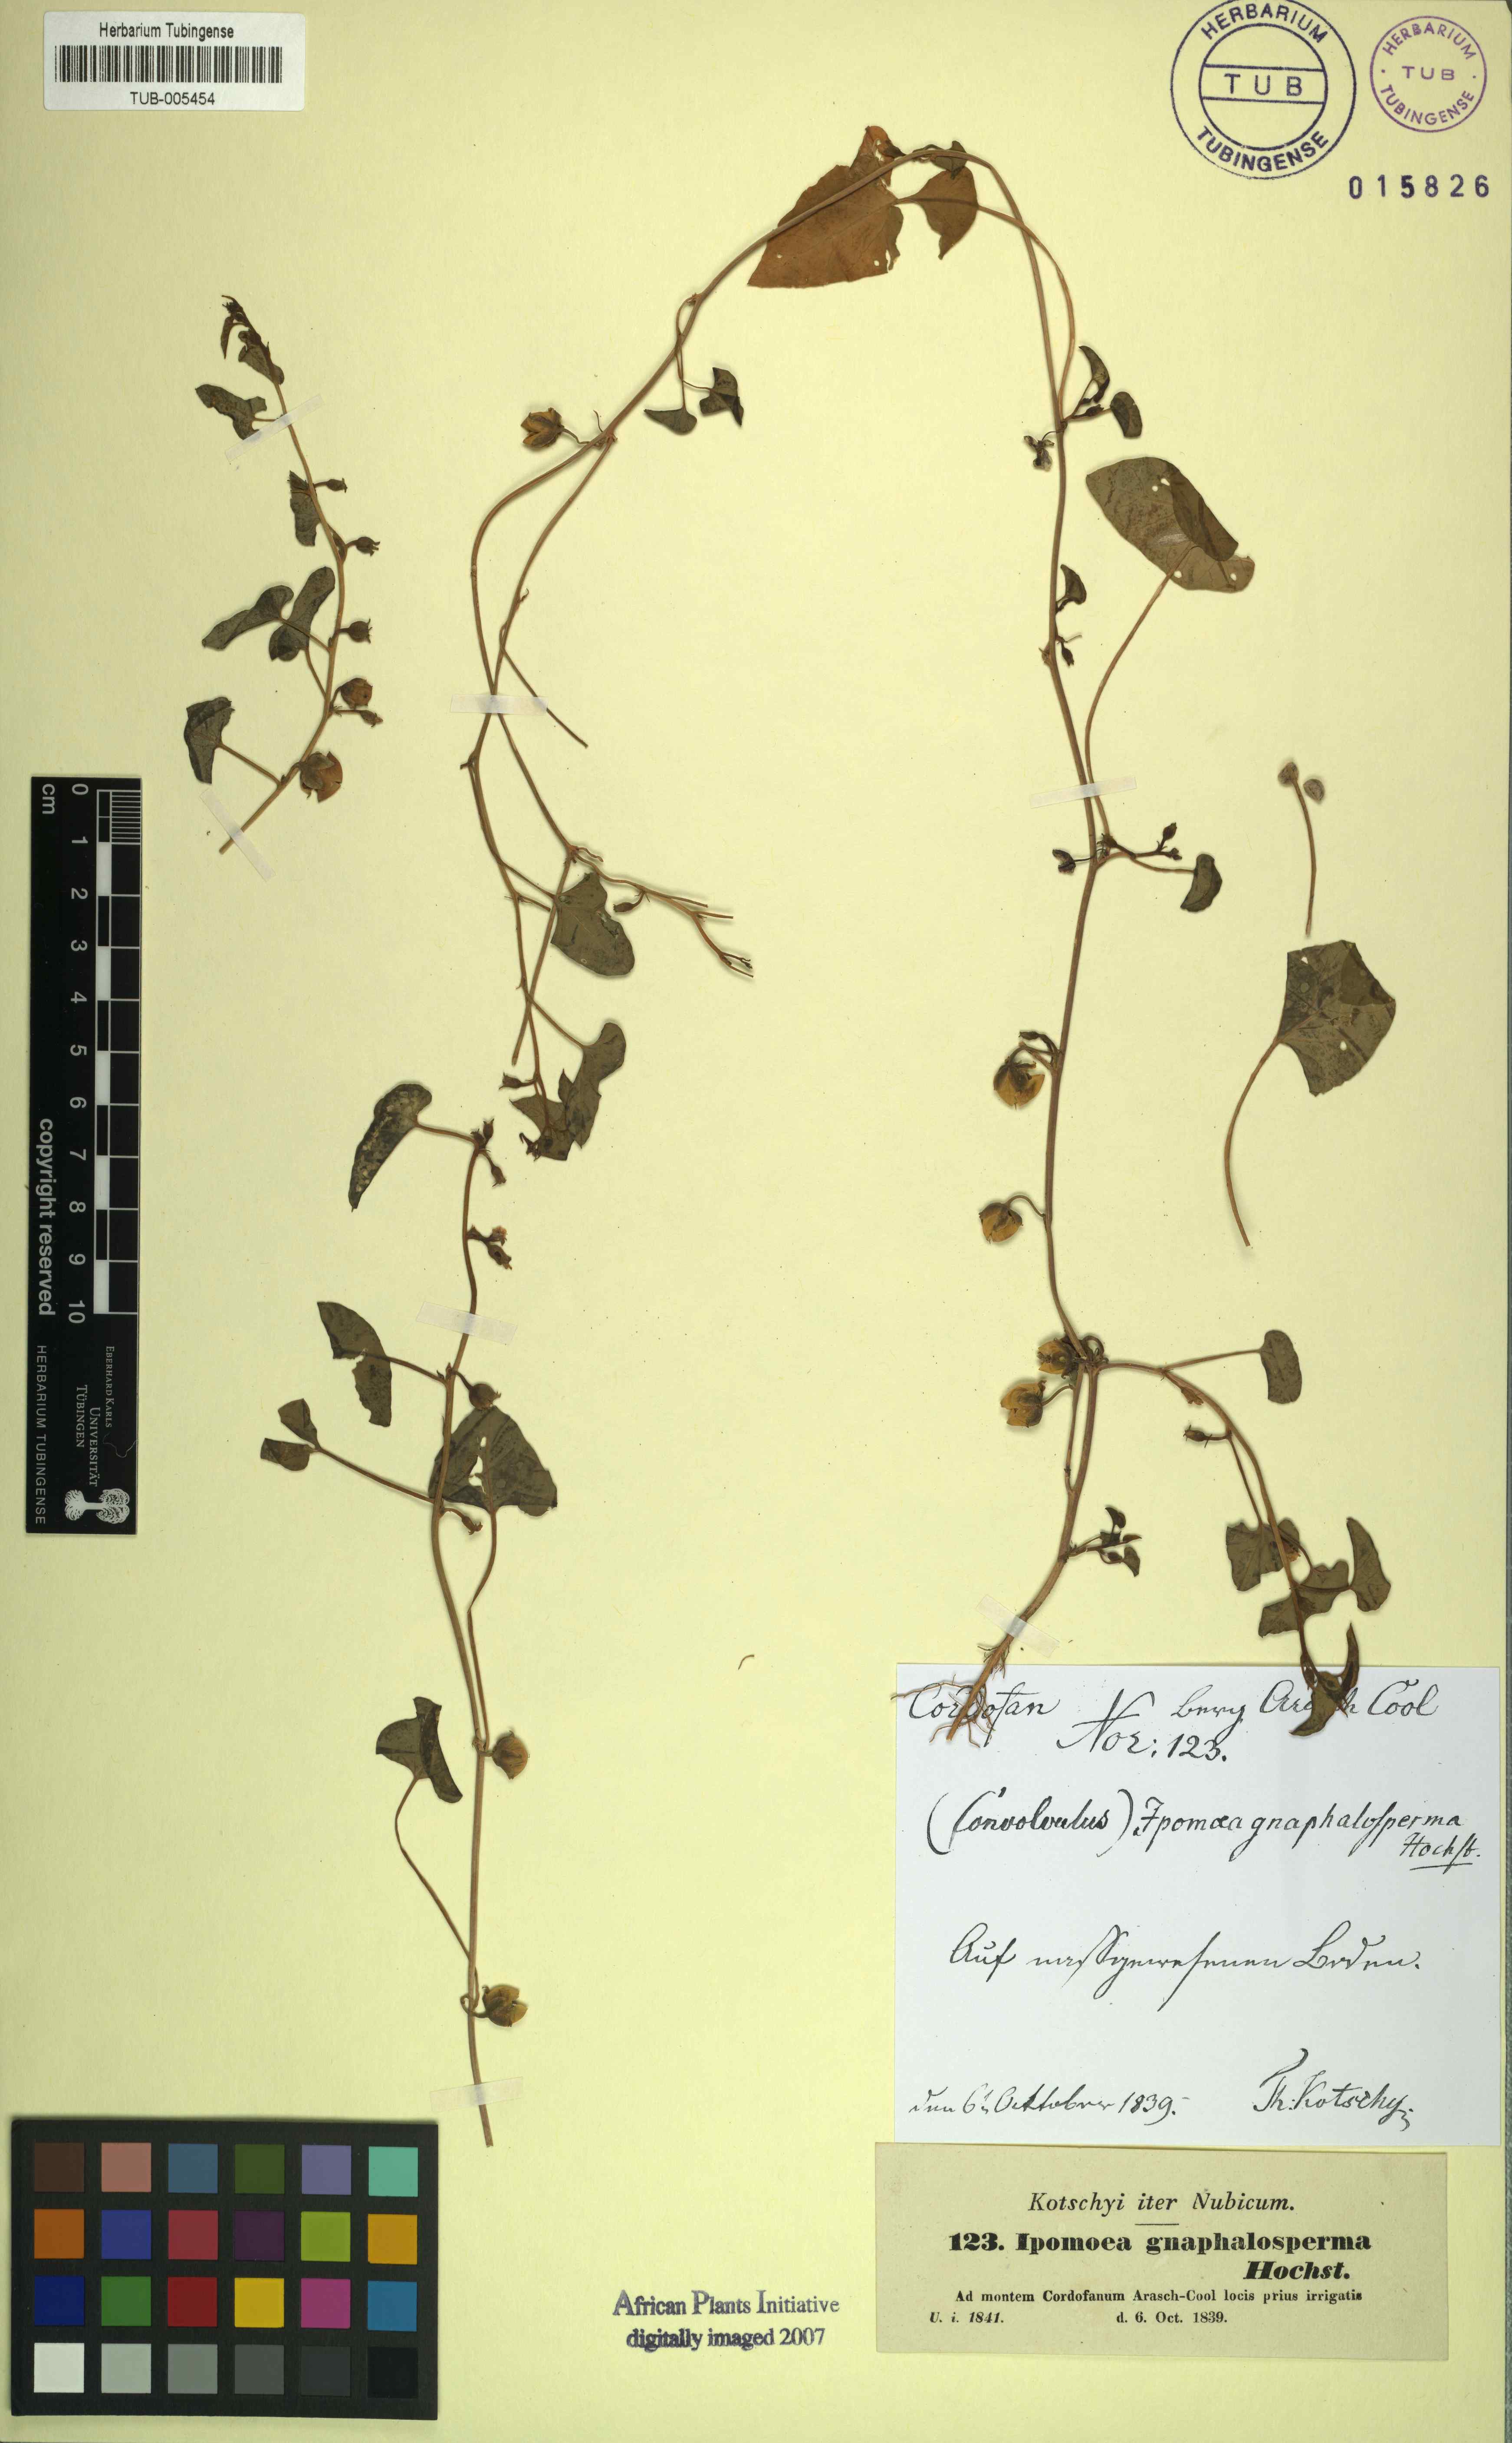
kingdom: Plantae
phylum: Tracheophyta
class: Magnoliopsida
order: Solanales
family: Convolvulaceae
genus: Ipomoea
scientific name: Ipomoea verticillata
